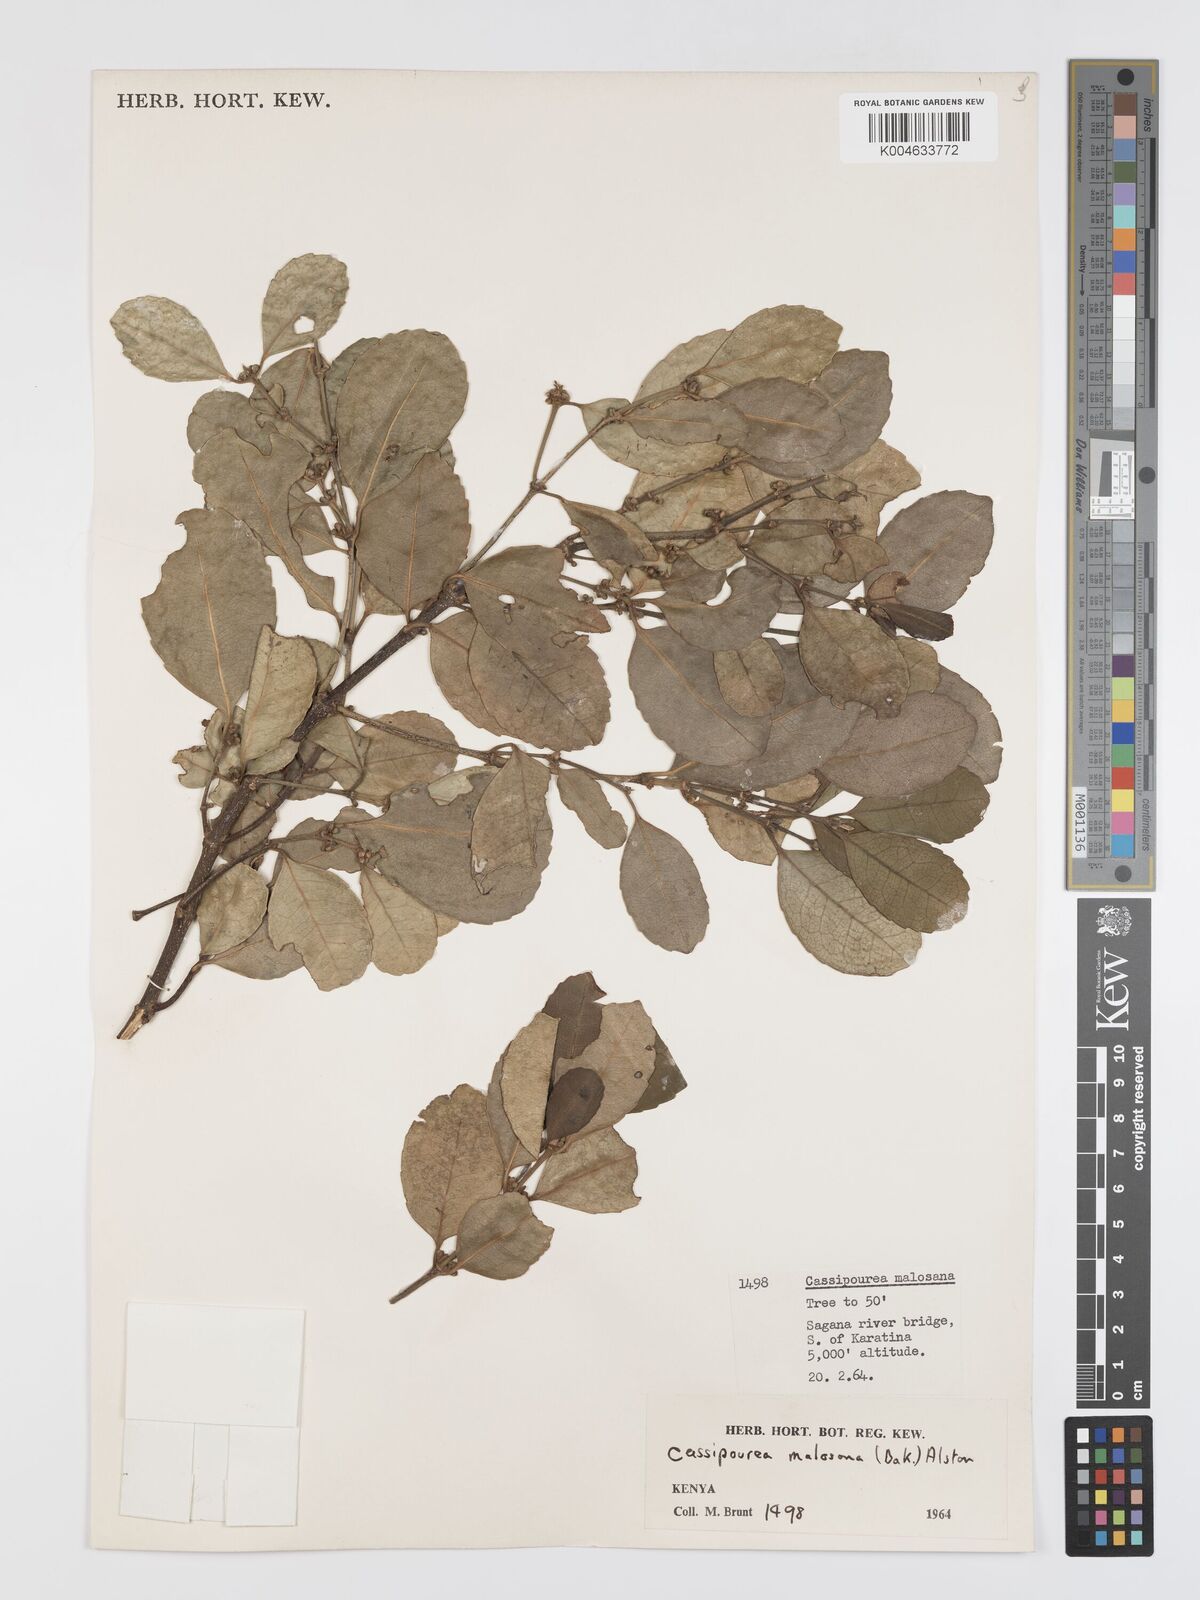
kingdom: Plantae
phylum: Tracheophyta
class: Magnoliopsida
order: Malpighiales
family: Rhizophoraceae
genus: Cassipourea
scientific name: Cassipourea malosana
